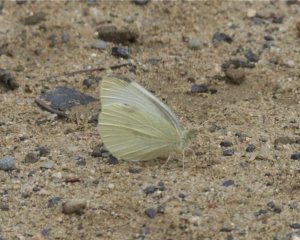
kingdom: Animalia
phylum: Arthropoda
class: Insecta
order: Lepidoptera
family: Pieridae
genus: Pieris
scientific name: Pieris oleracea
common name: Mustard White
